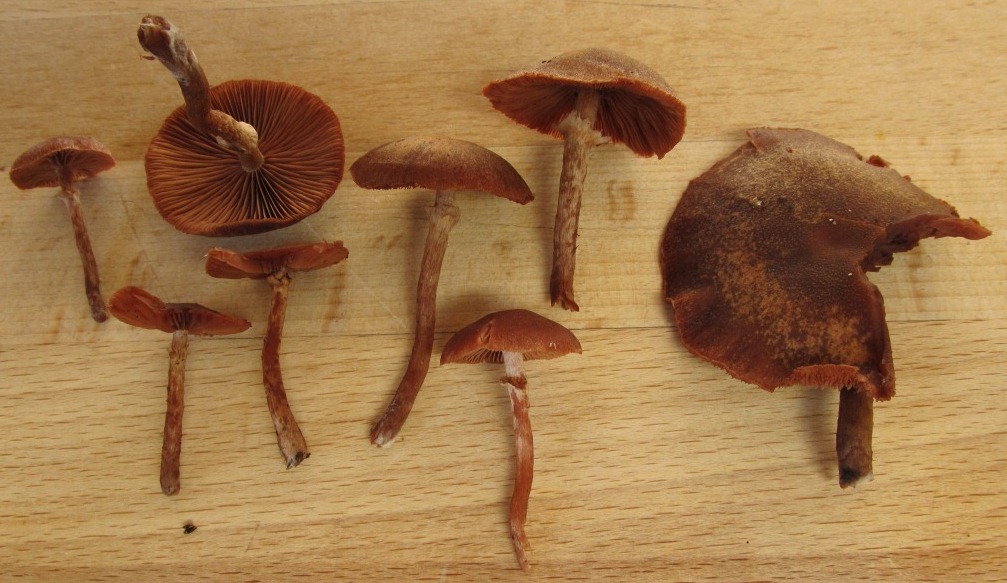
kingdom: Fungi
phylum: Basidiomycota
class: Agaricomycetes
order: Agaricales
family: Tubariaceae
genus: Tubaria
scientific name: Tubaria confragosa
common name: ring-fnughat
